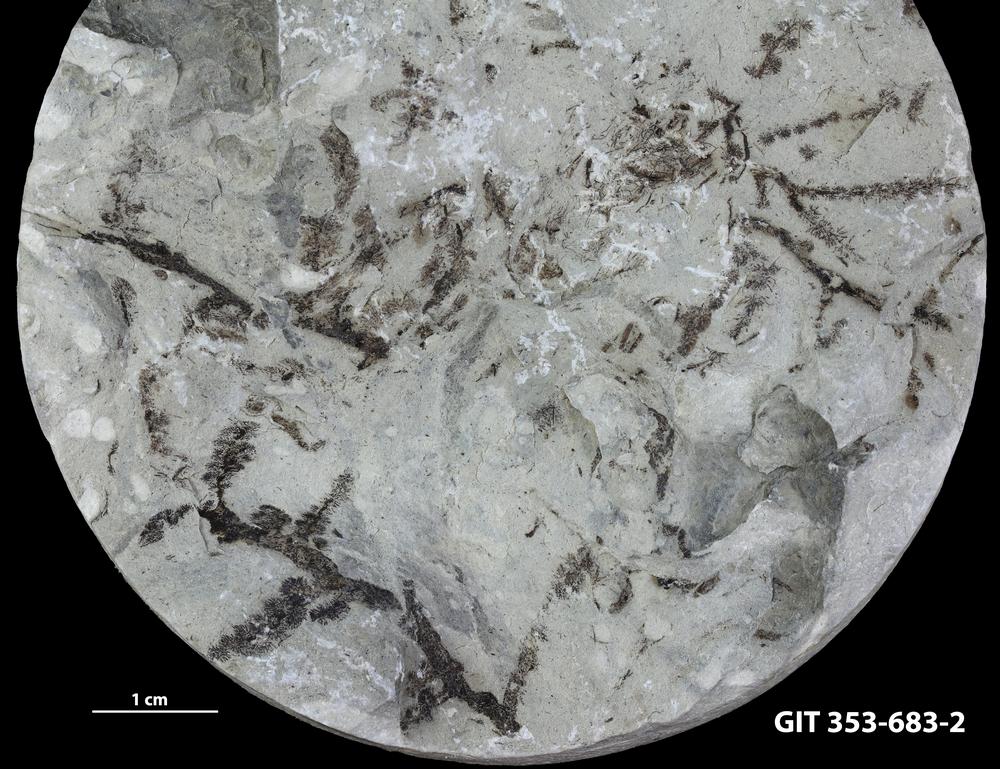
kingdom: Plantae
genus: Leveilleites
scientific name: Leveilleites hartnageli
